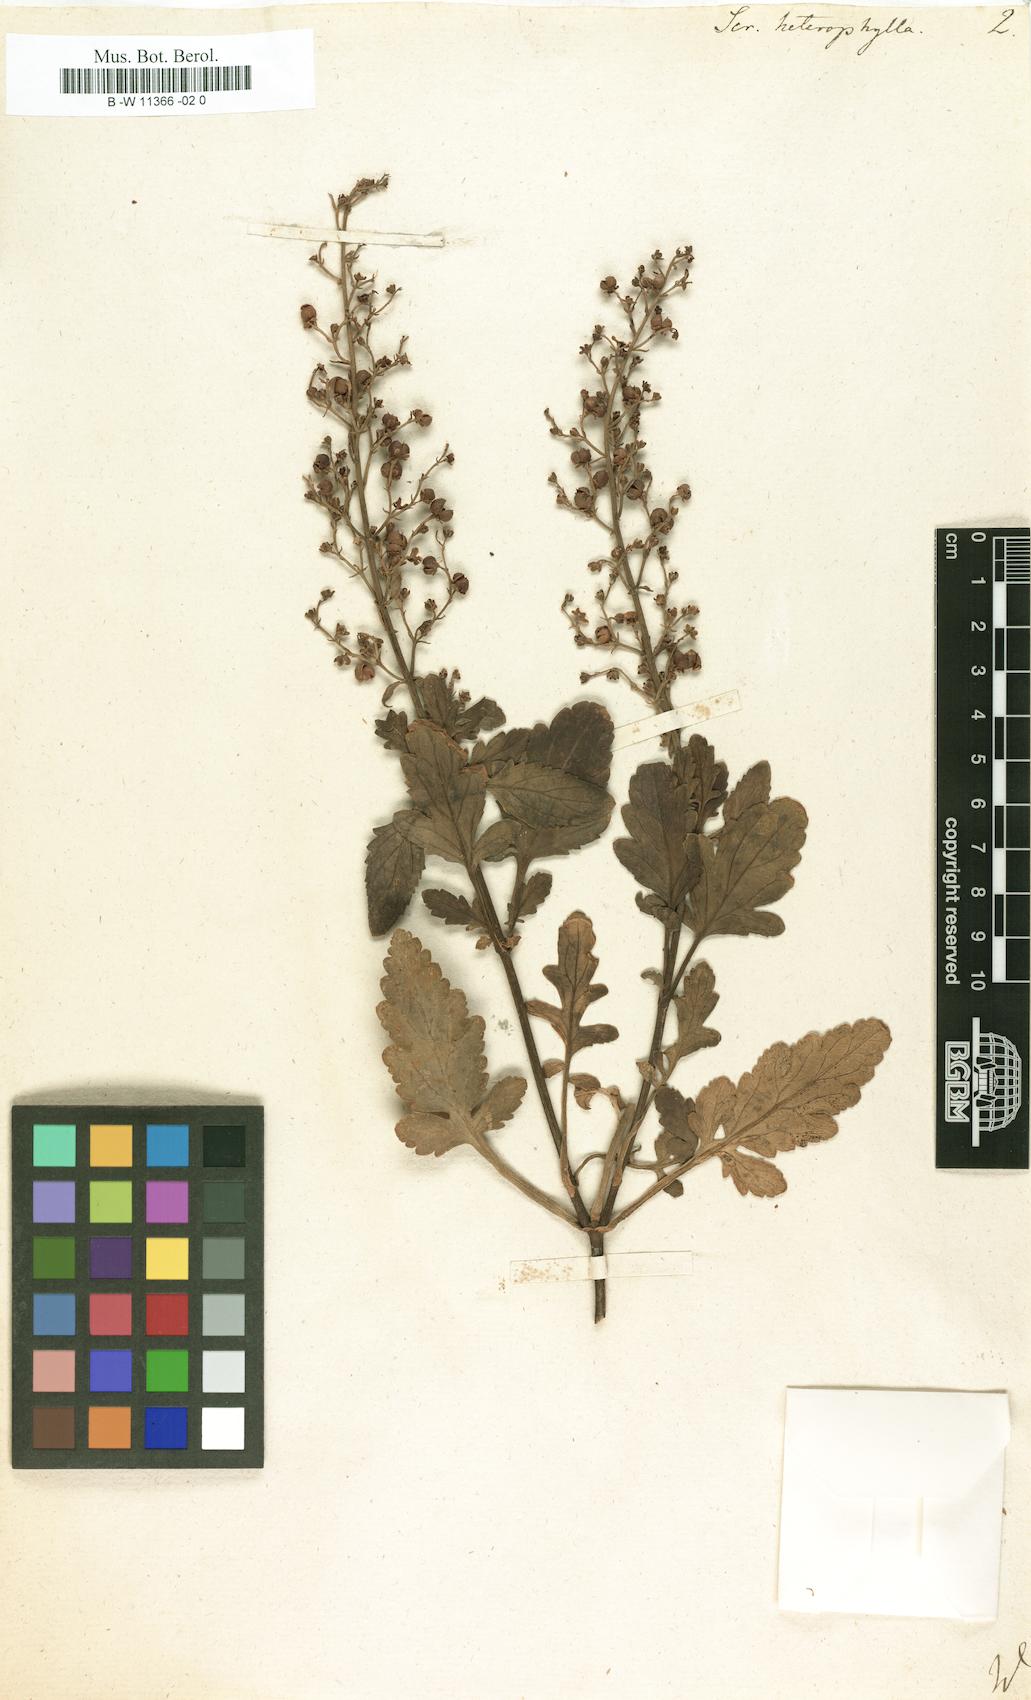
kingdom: Plantae
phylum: Tracheophyta
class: Magnoliopsida
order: Lamiales
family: Scrophulariaceae
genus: Scrophularia
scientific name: Scrophularia heterophylla
